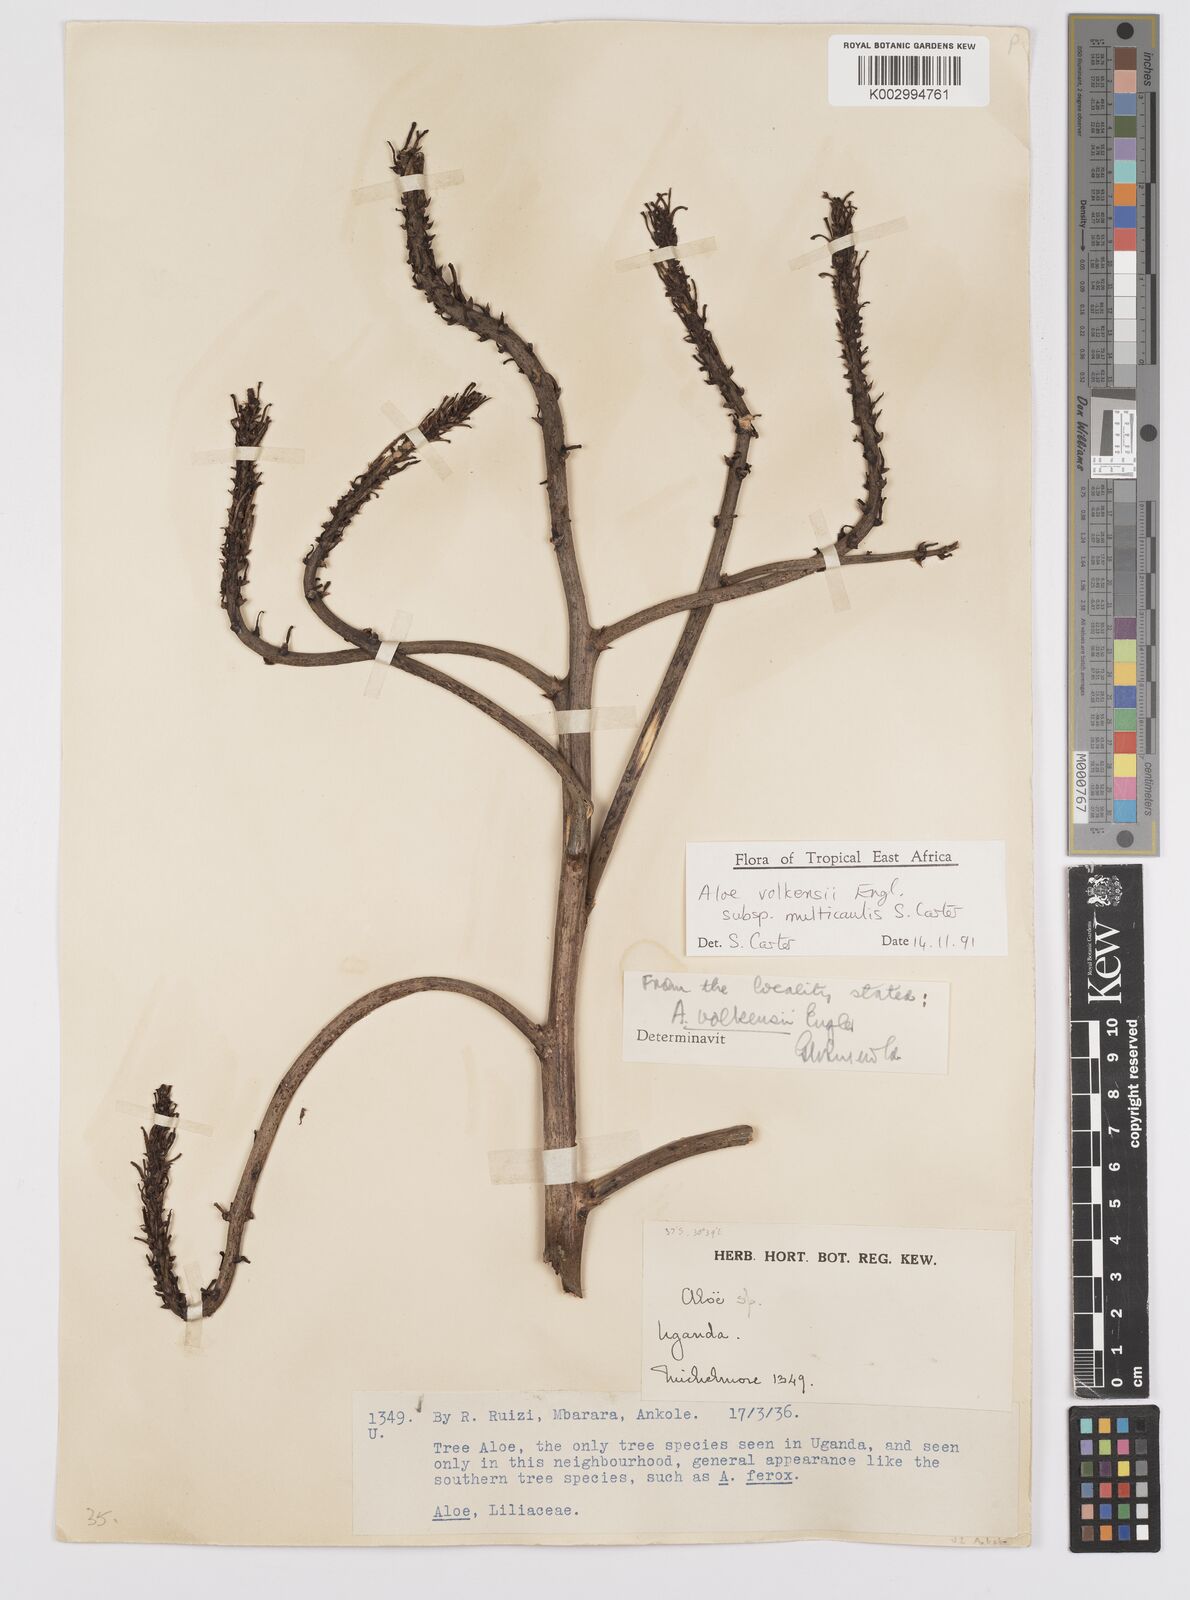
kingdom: Plantae
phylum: Tracheophyta
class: Liliopsida
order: Asparagales
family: Asphodelaceae
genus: Aloe
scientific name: Aloe volkensii
